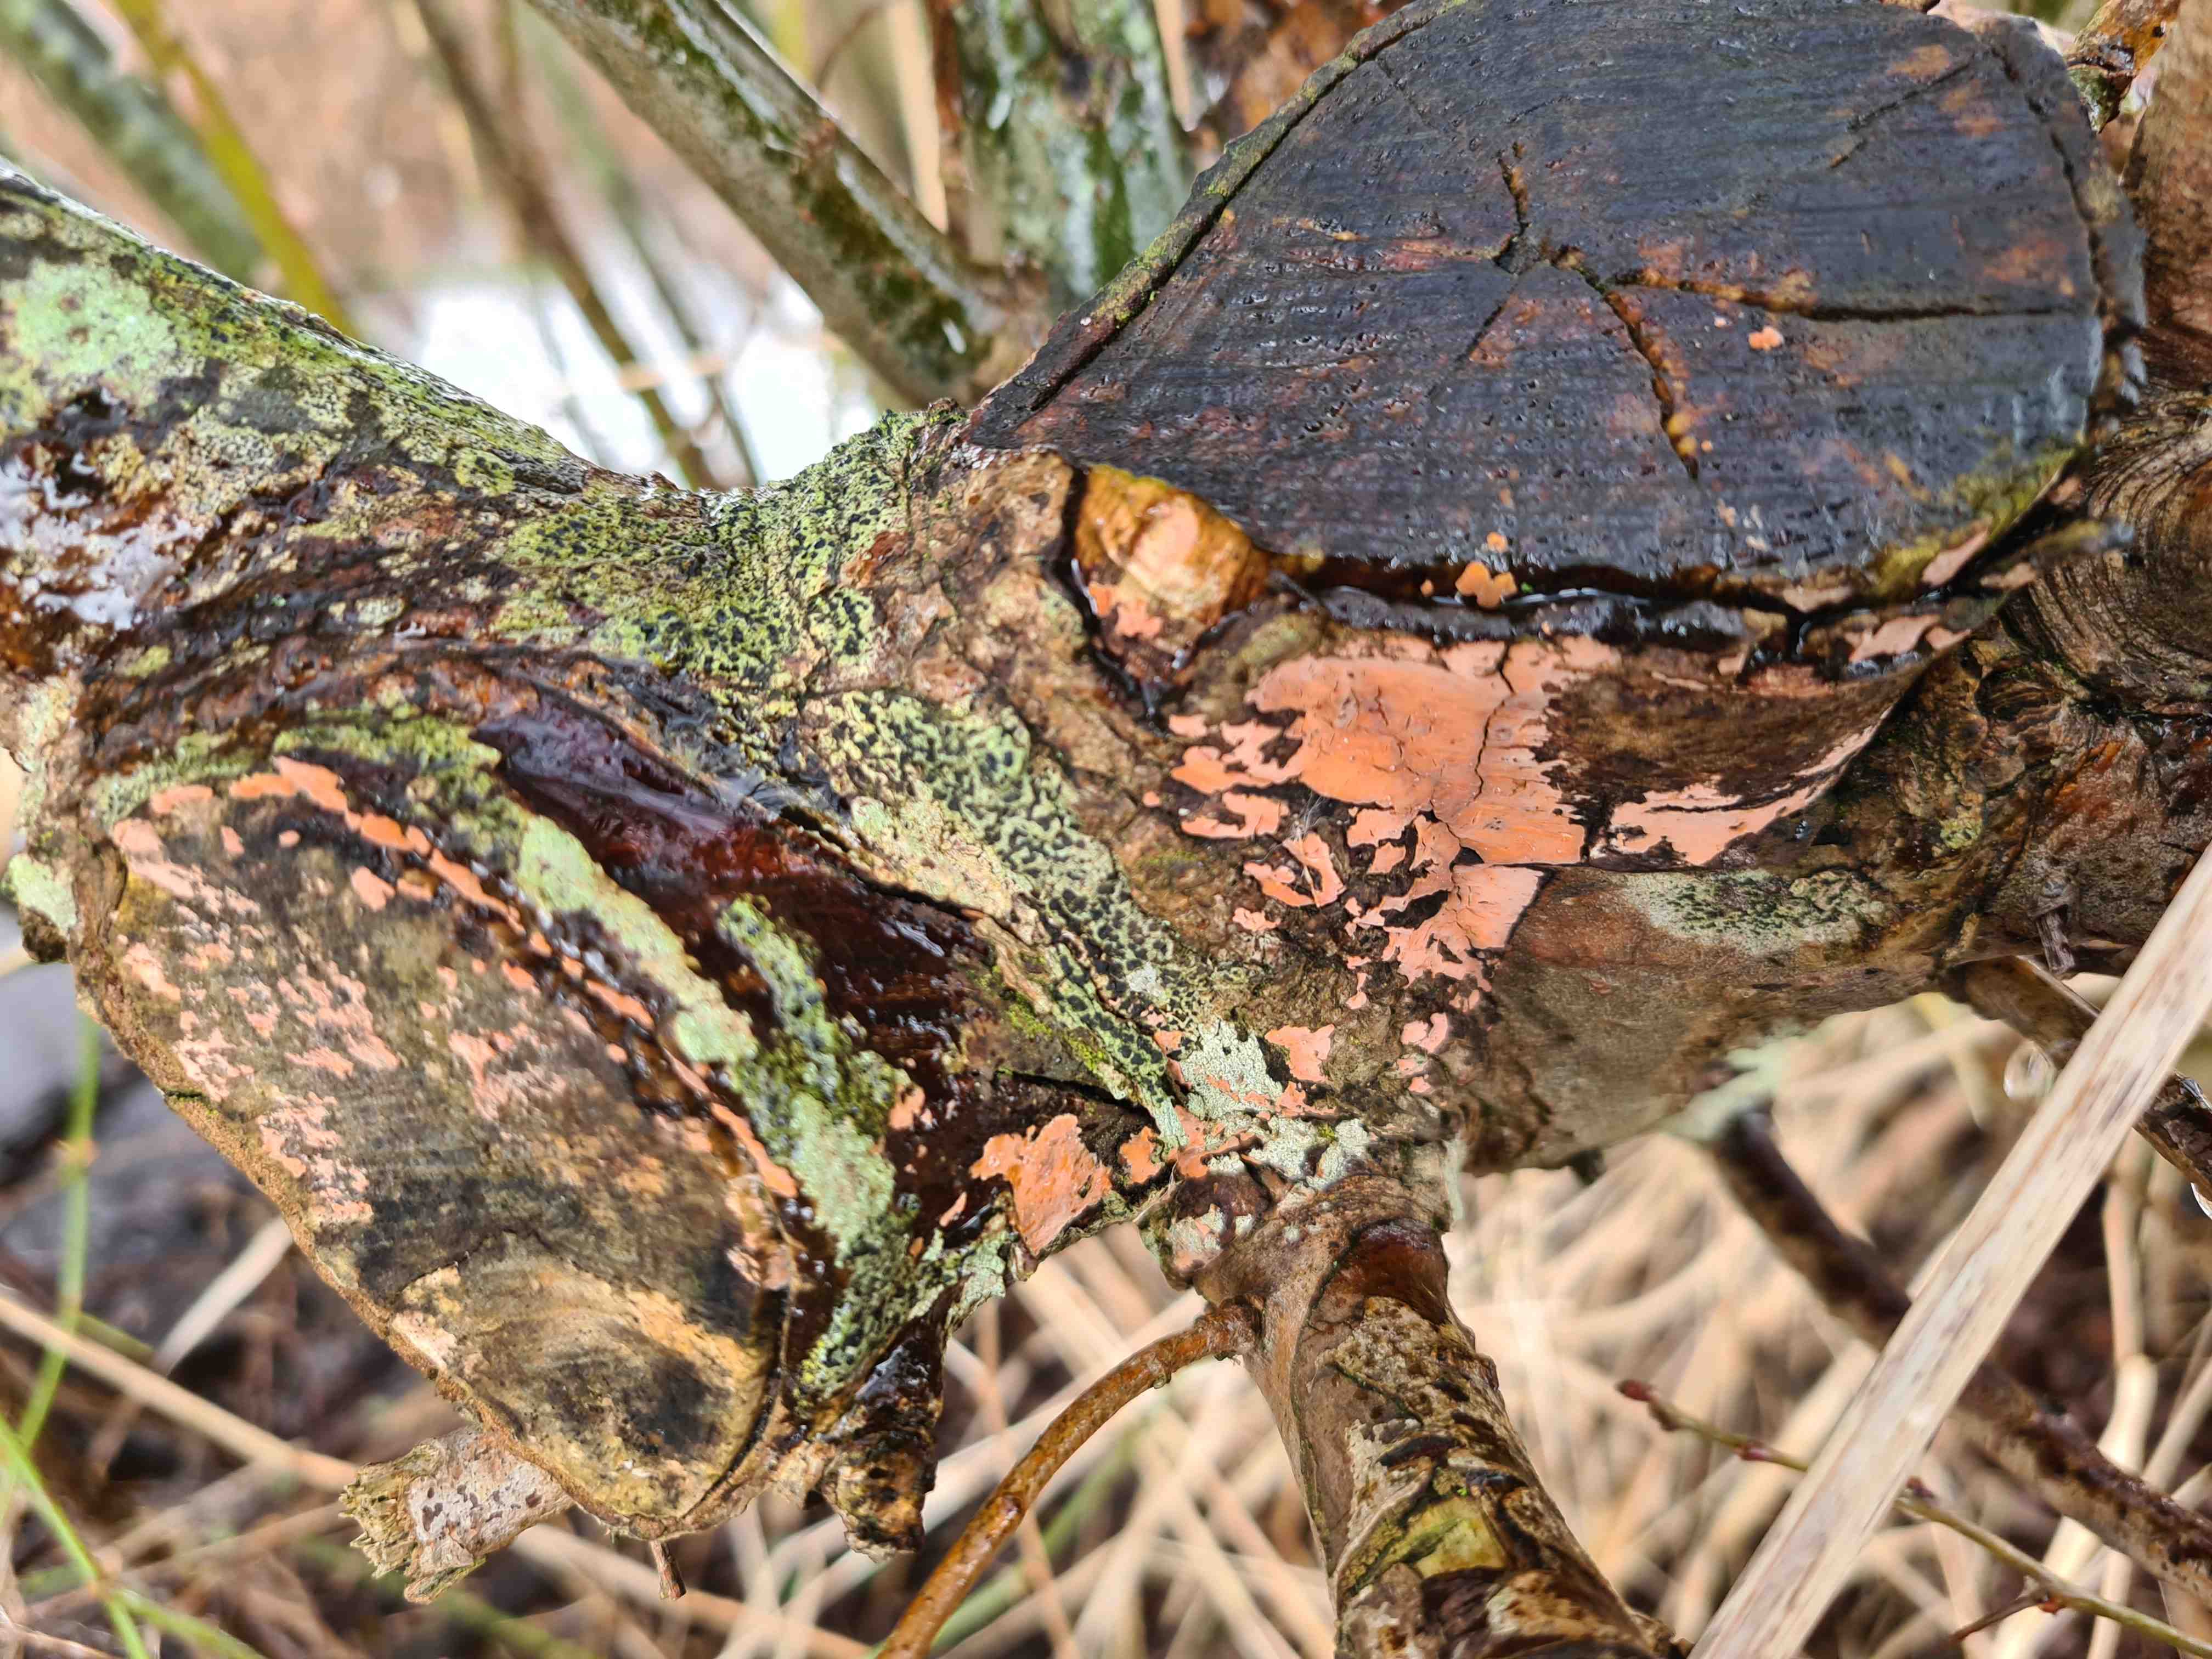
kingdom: Fungi
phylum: Basidiomycota
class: Agaricomycetes
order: Russulales
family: Peniophoraceae
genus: Peniophora
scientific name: Peniophora incarnata
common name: laksefarvet voksskind
